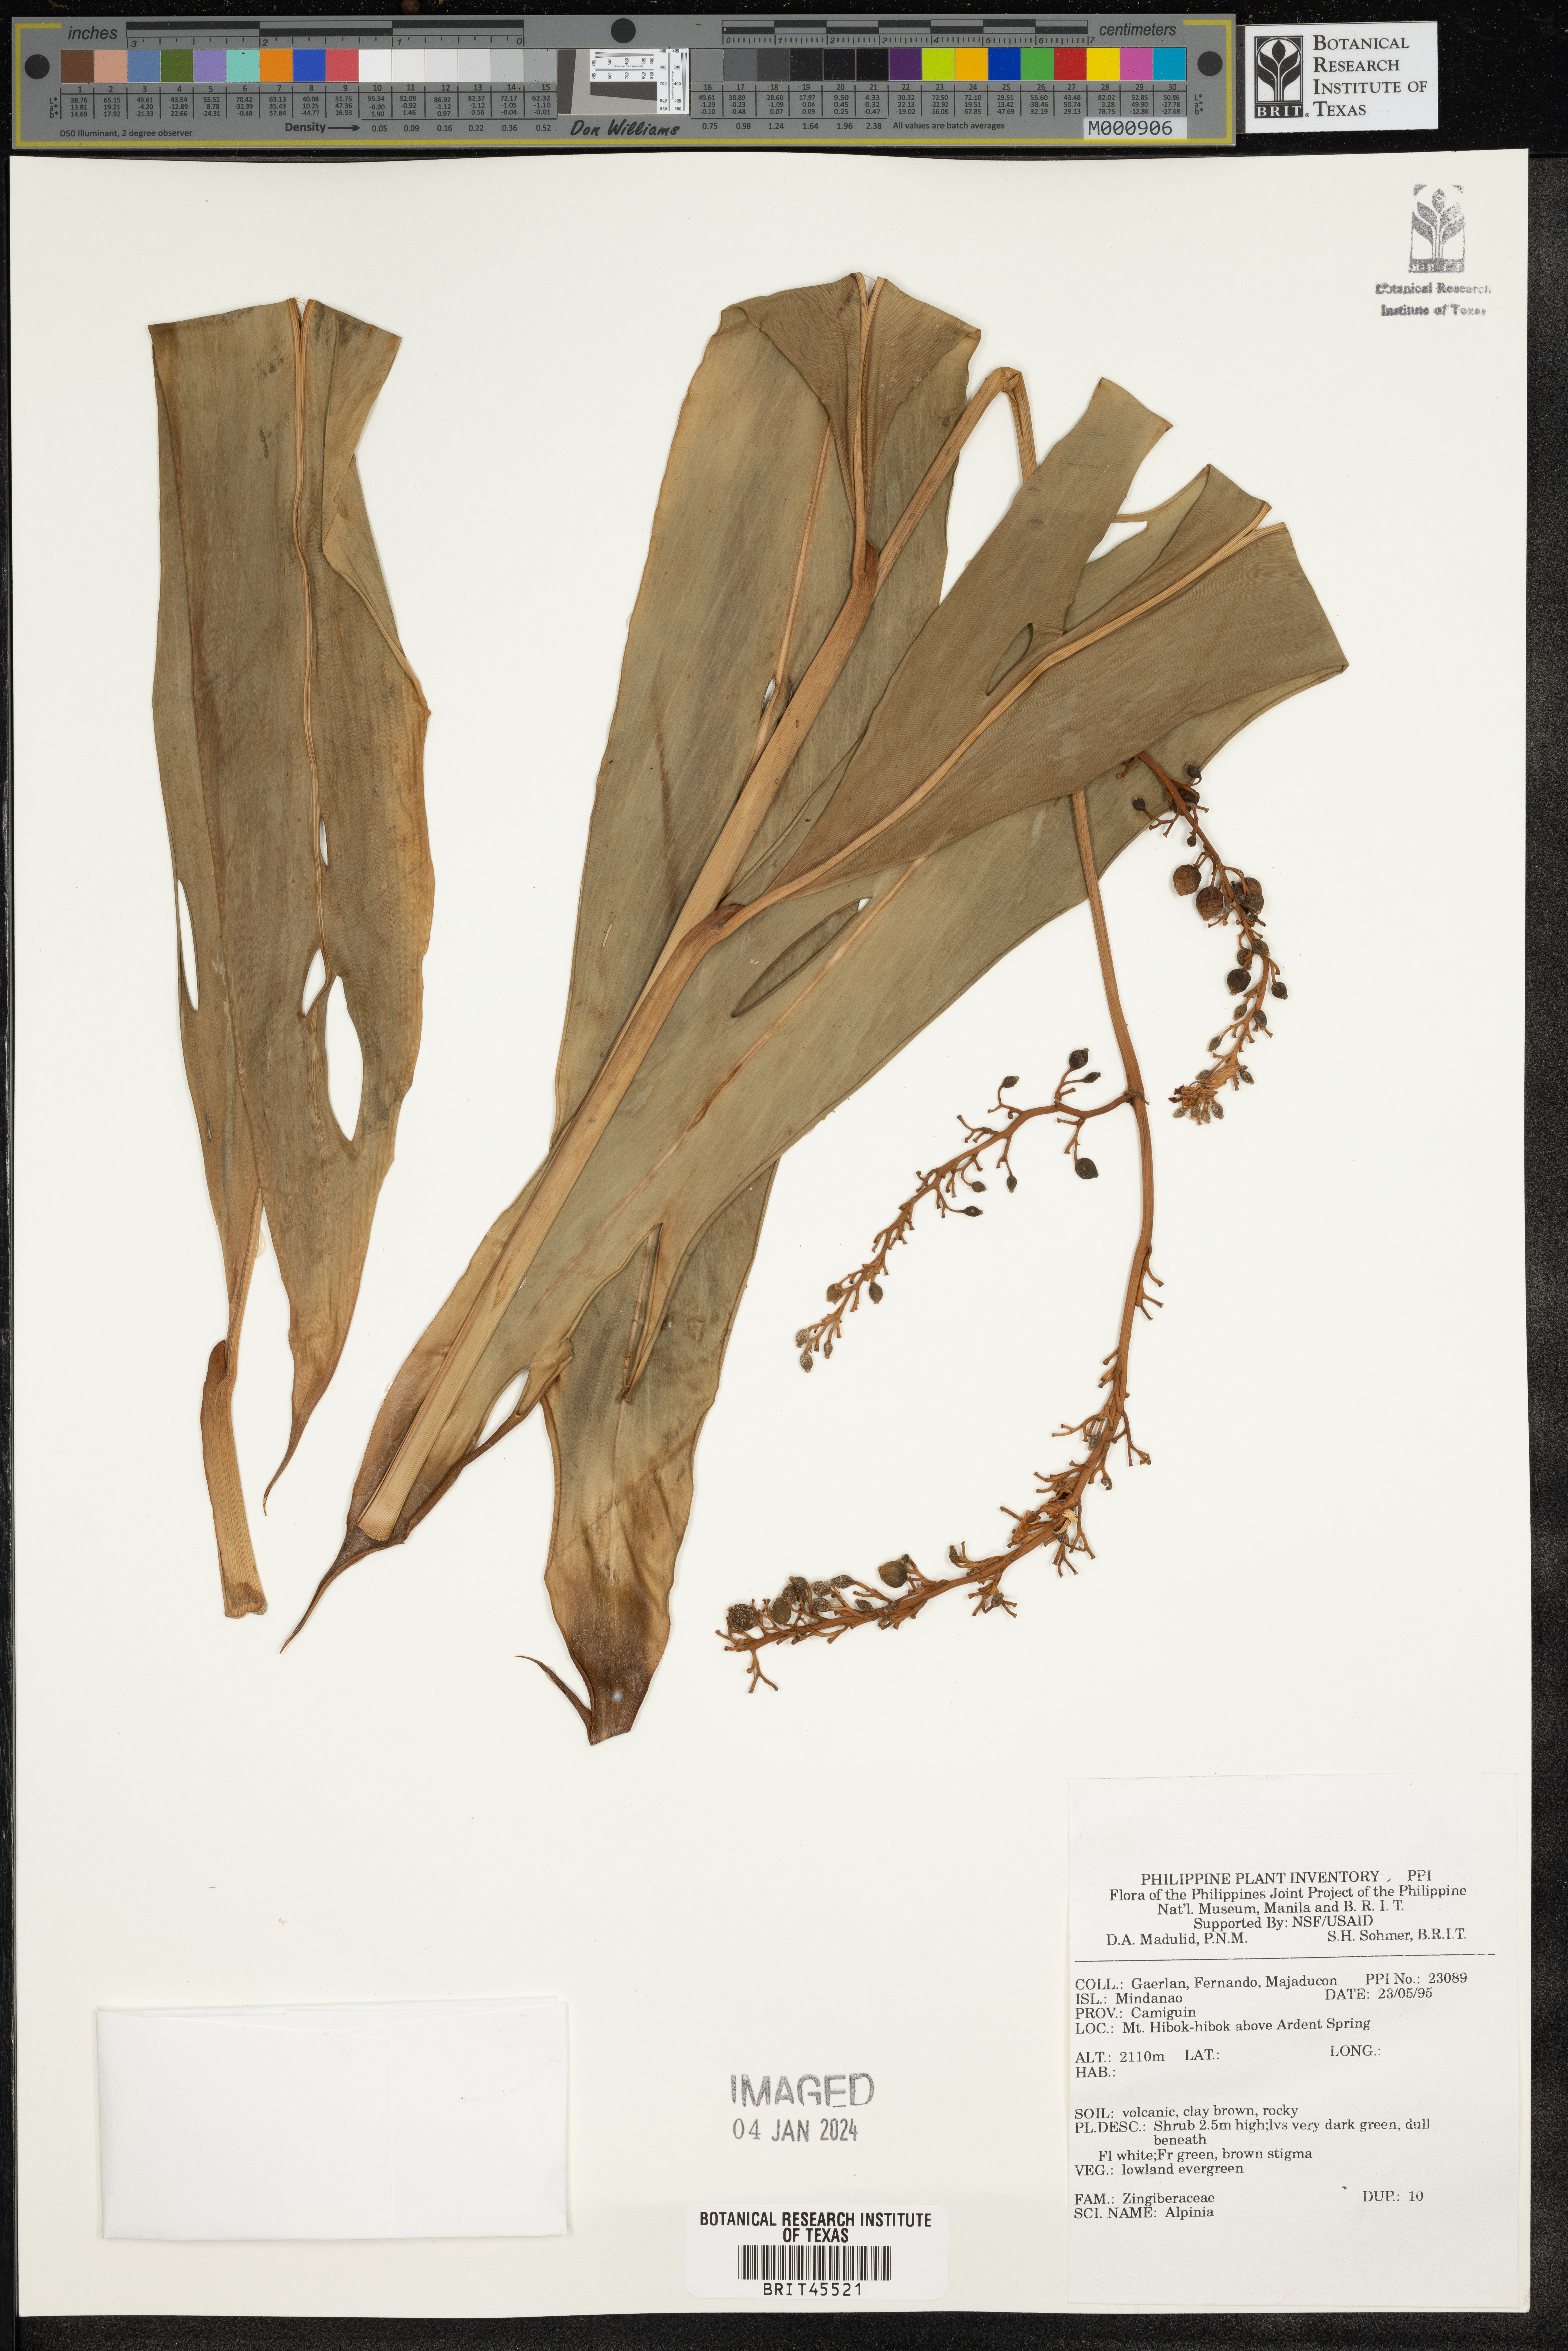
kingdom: Plantae
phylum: Tracheophyta
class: Liliopsida
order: Zingiberales
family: Zingiberaceae
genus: Alpinia
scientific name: Alpinia
